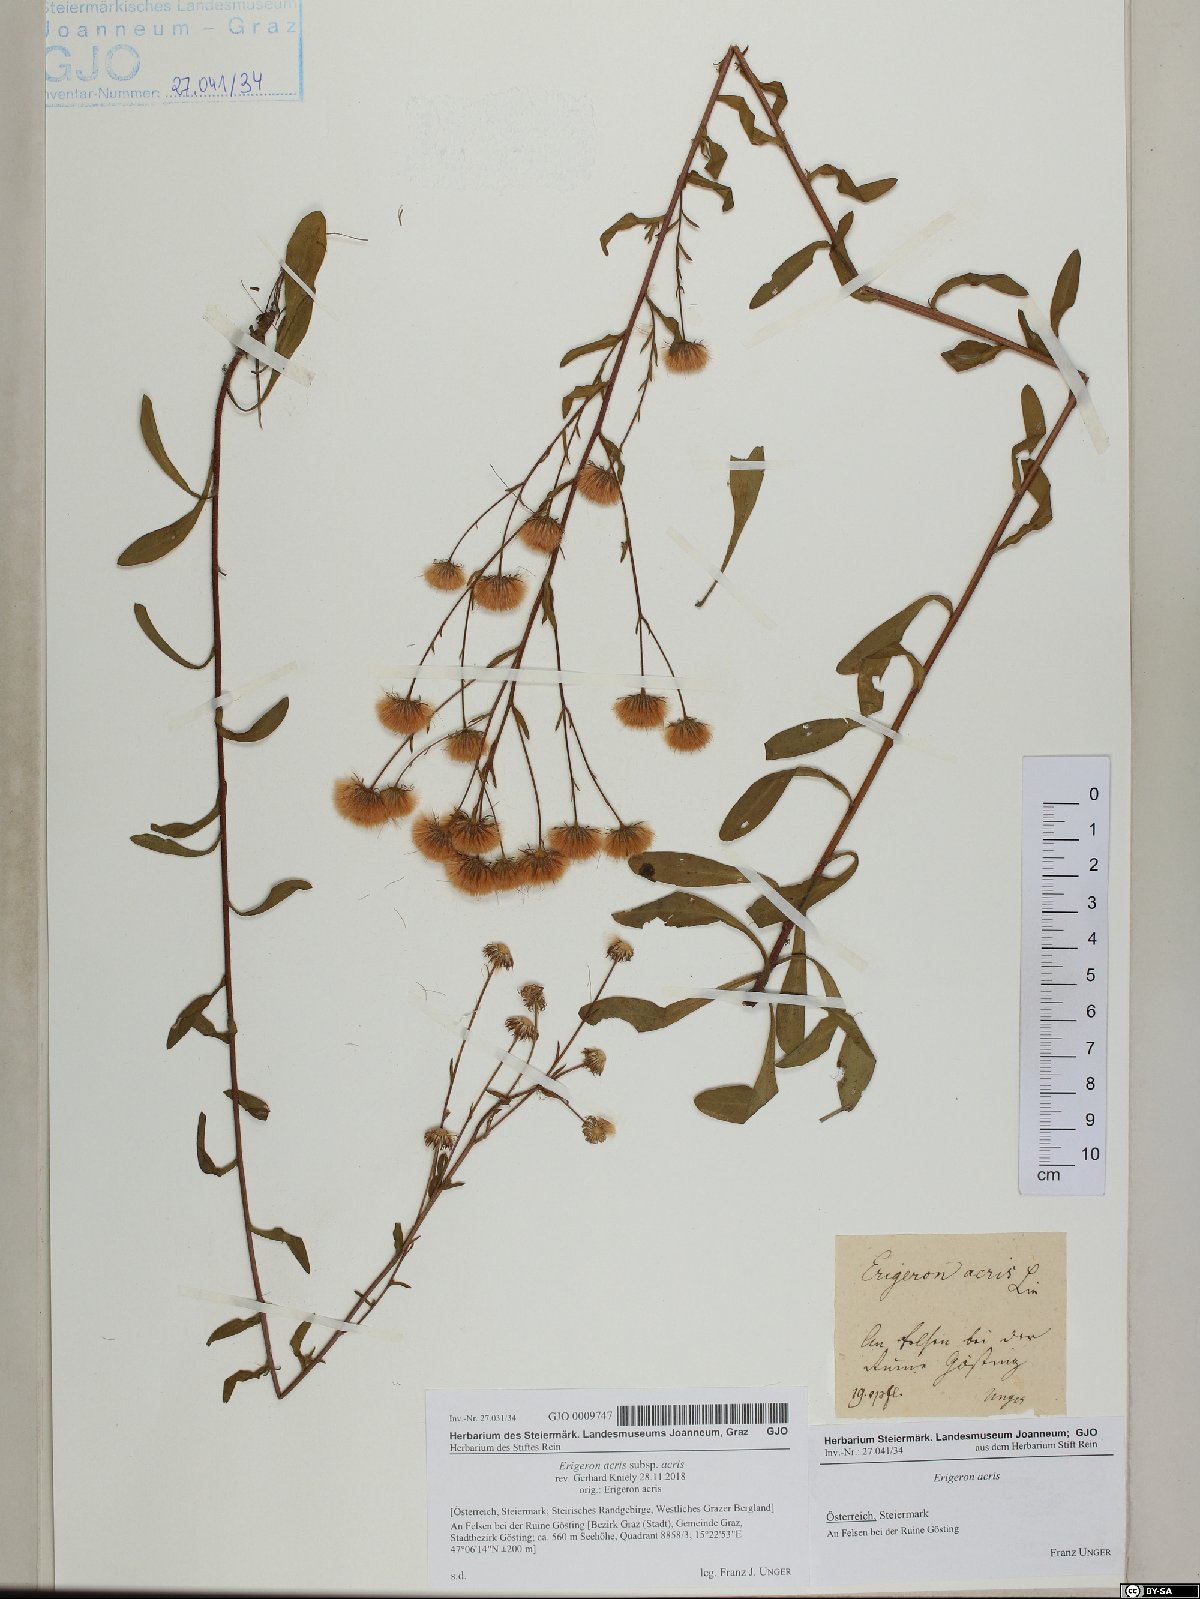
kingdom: Plantae
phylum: Tracheophyta
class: Magnoliopsida
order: Asterales
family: Asteraceae
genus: Erigeron
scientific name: Erigeron acris
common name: Blue fleabane
